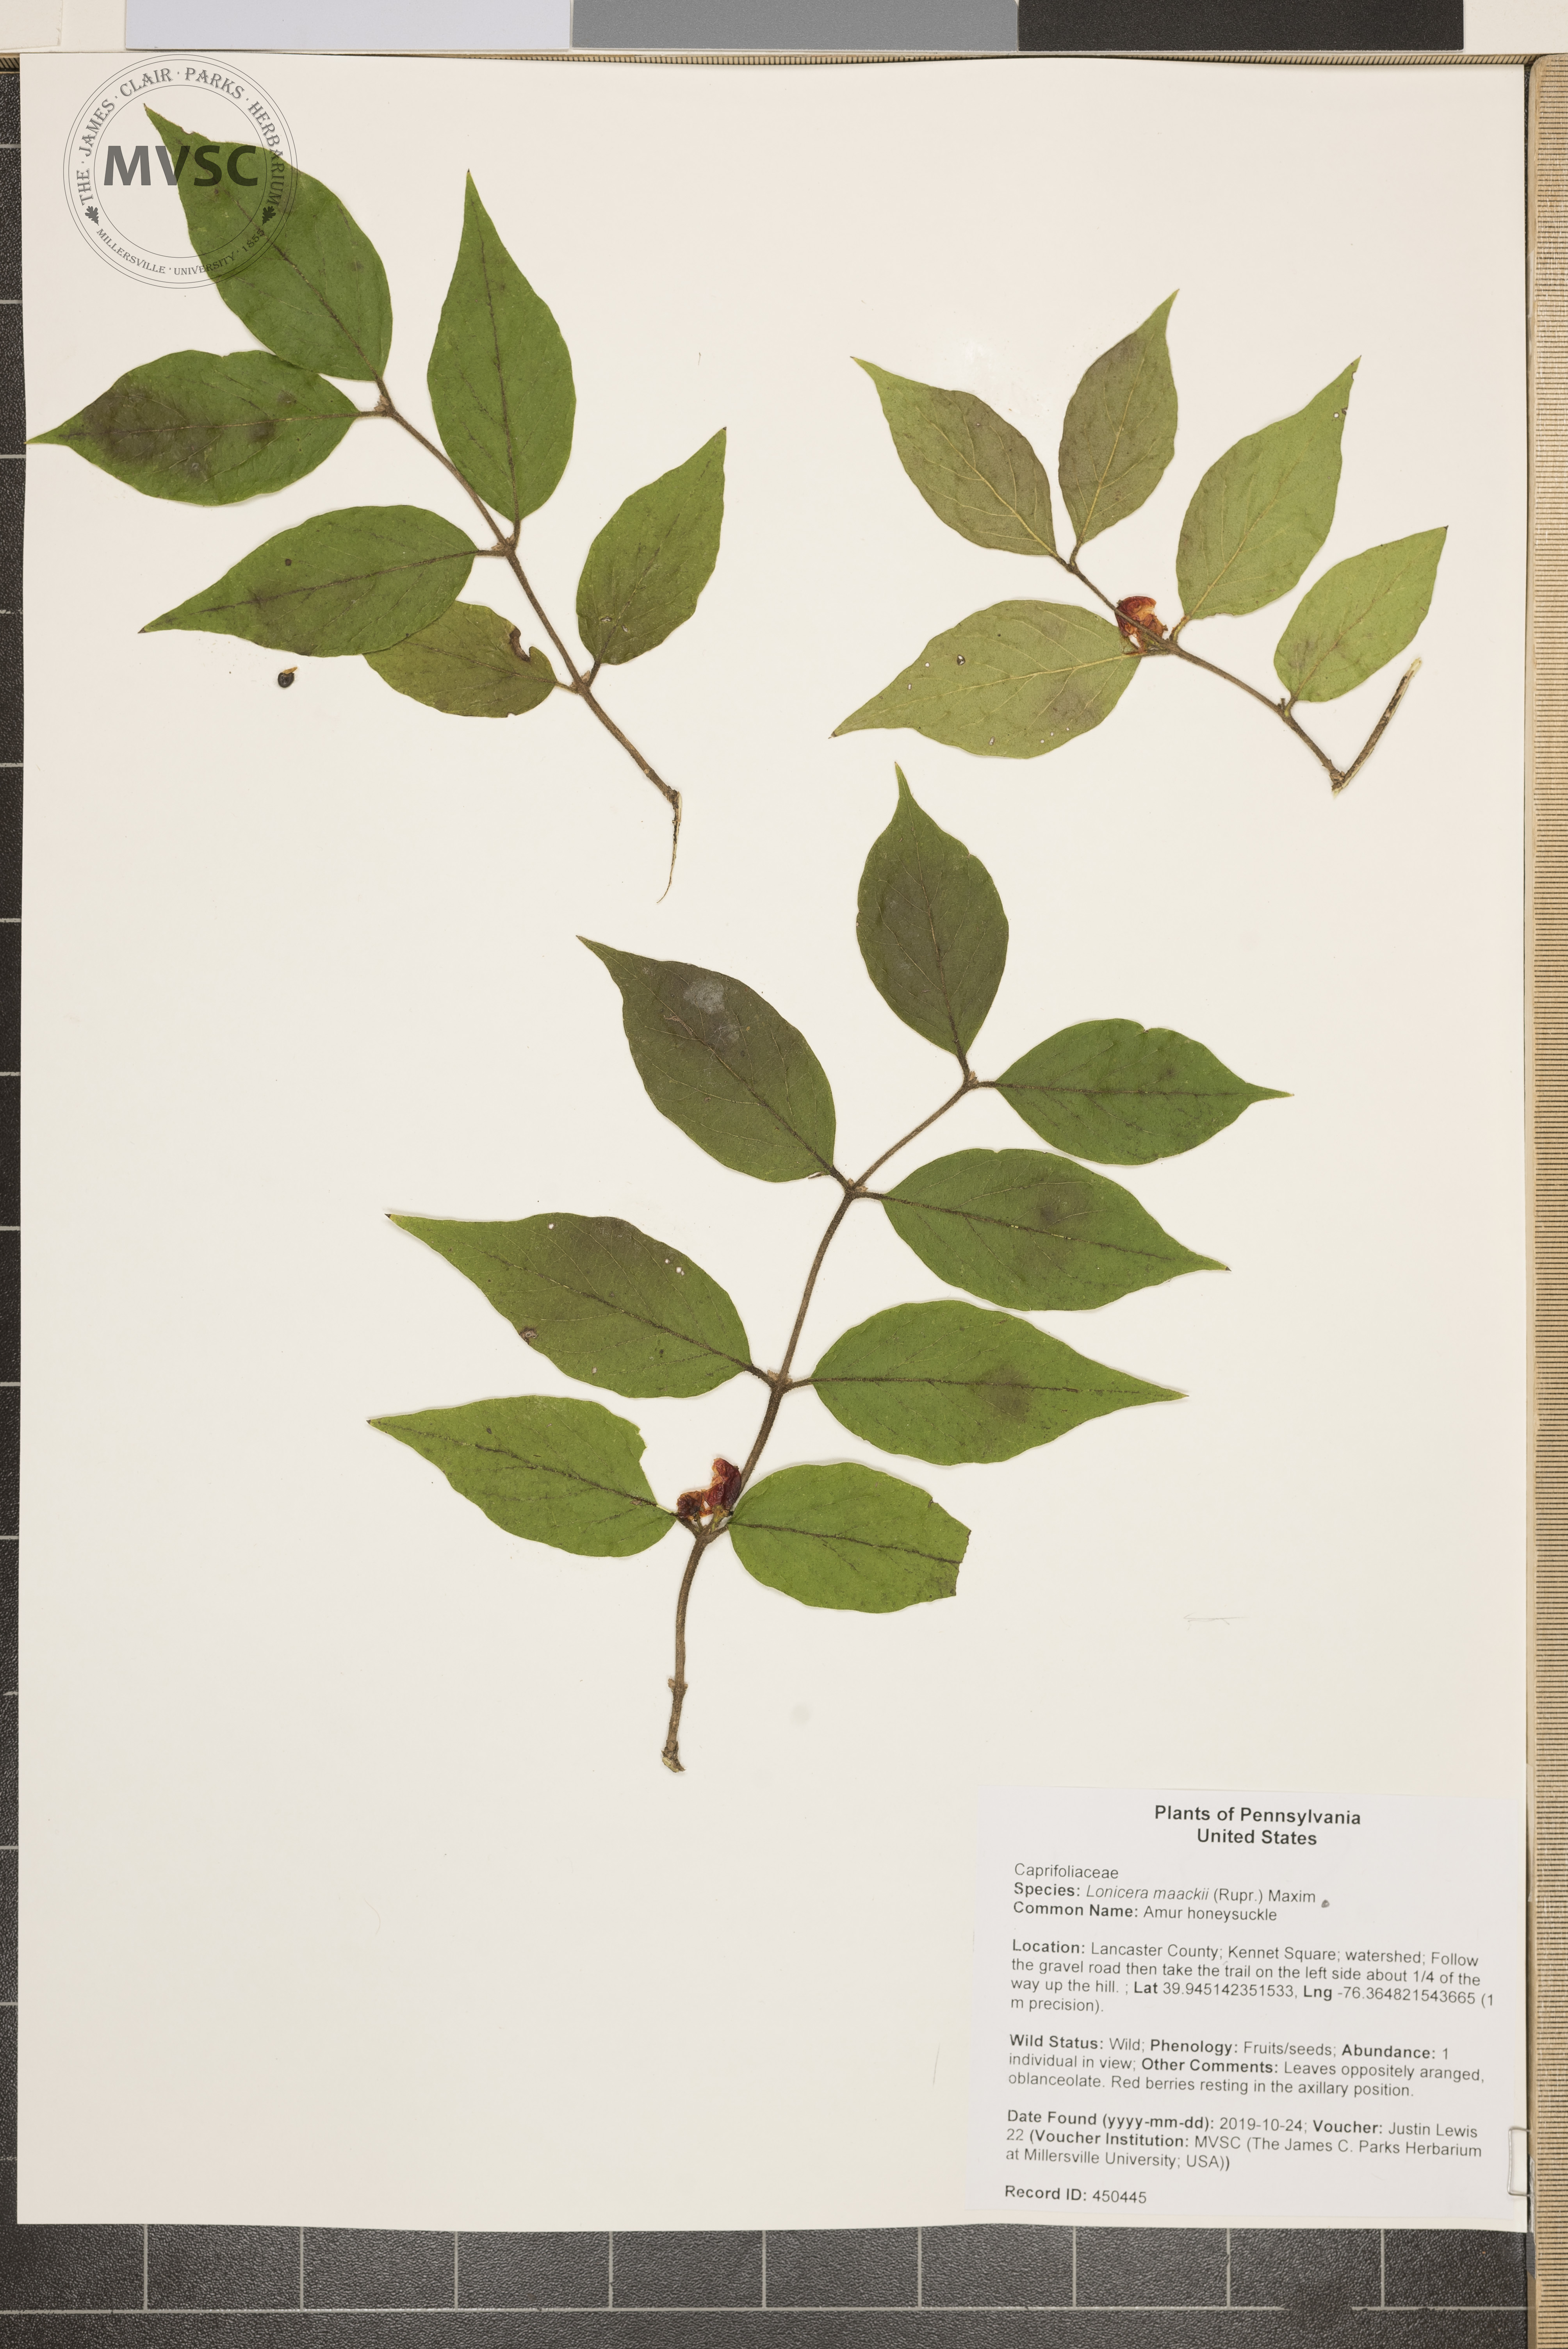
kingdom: Plantae
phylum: Tracheophyta
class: Magnoliopsida
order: Dipsacales
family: Caprifoliaceae
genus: Lonicera
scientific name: Lonicera maackii
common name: Amur honeysuckle
